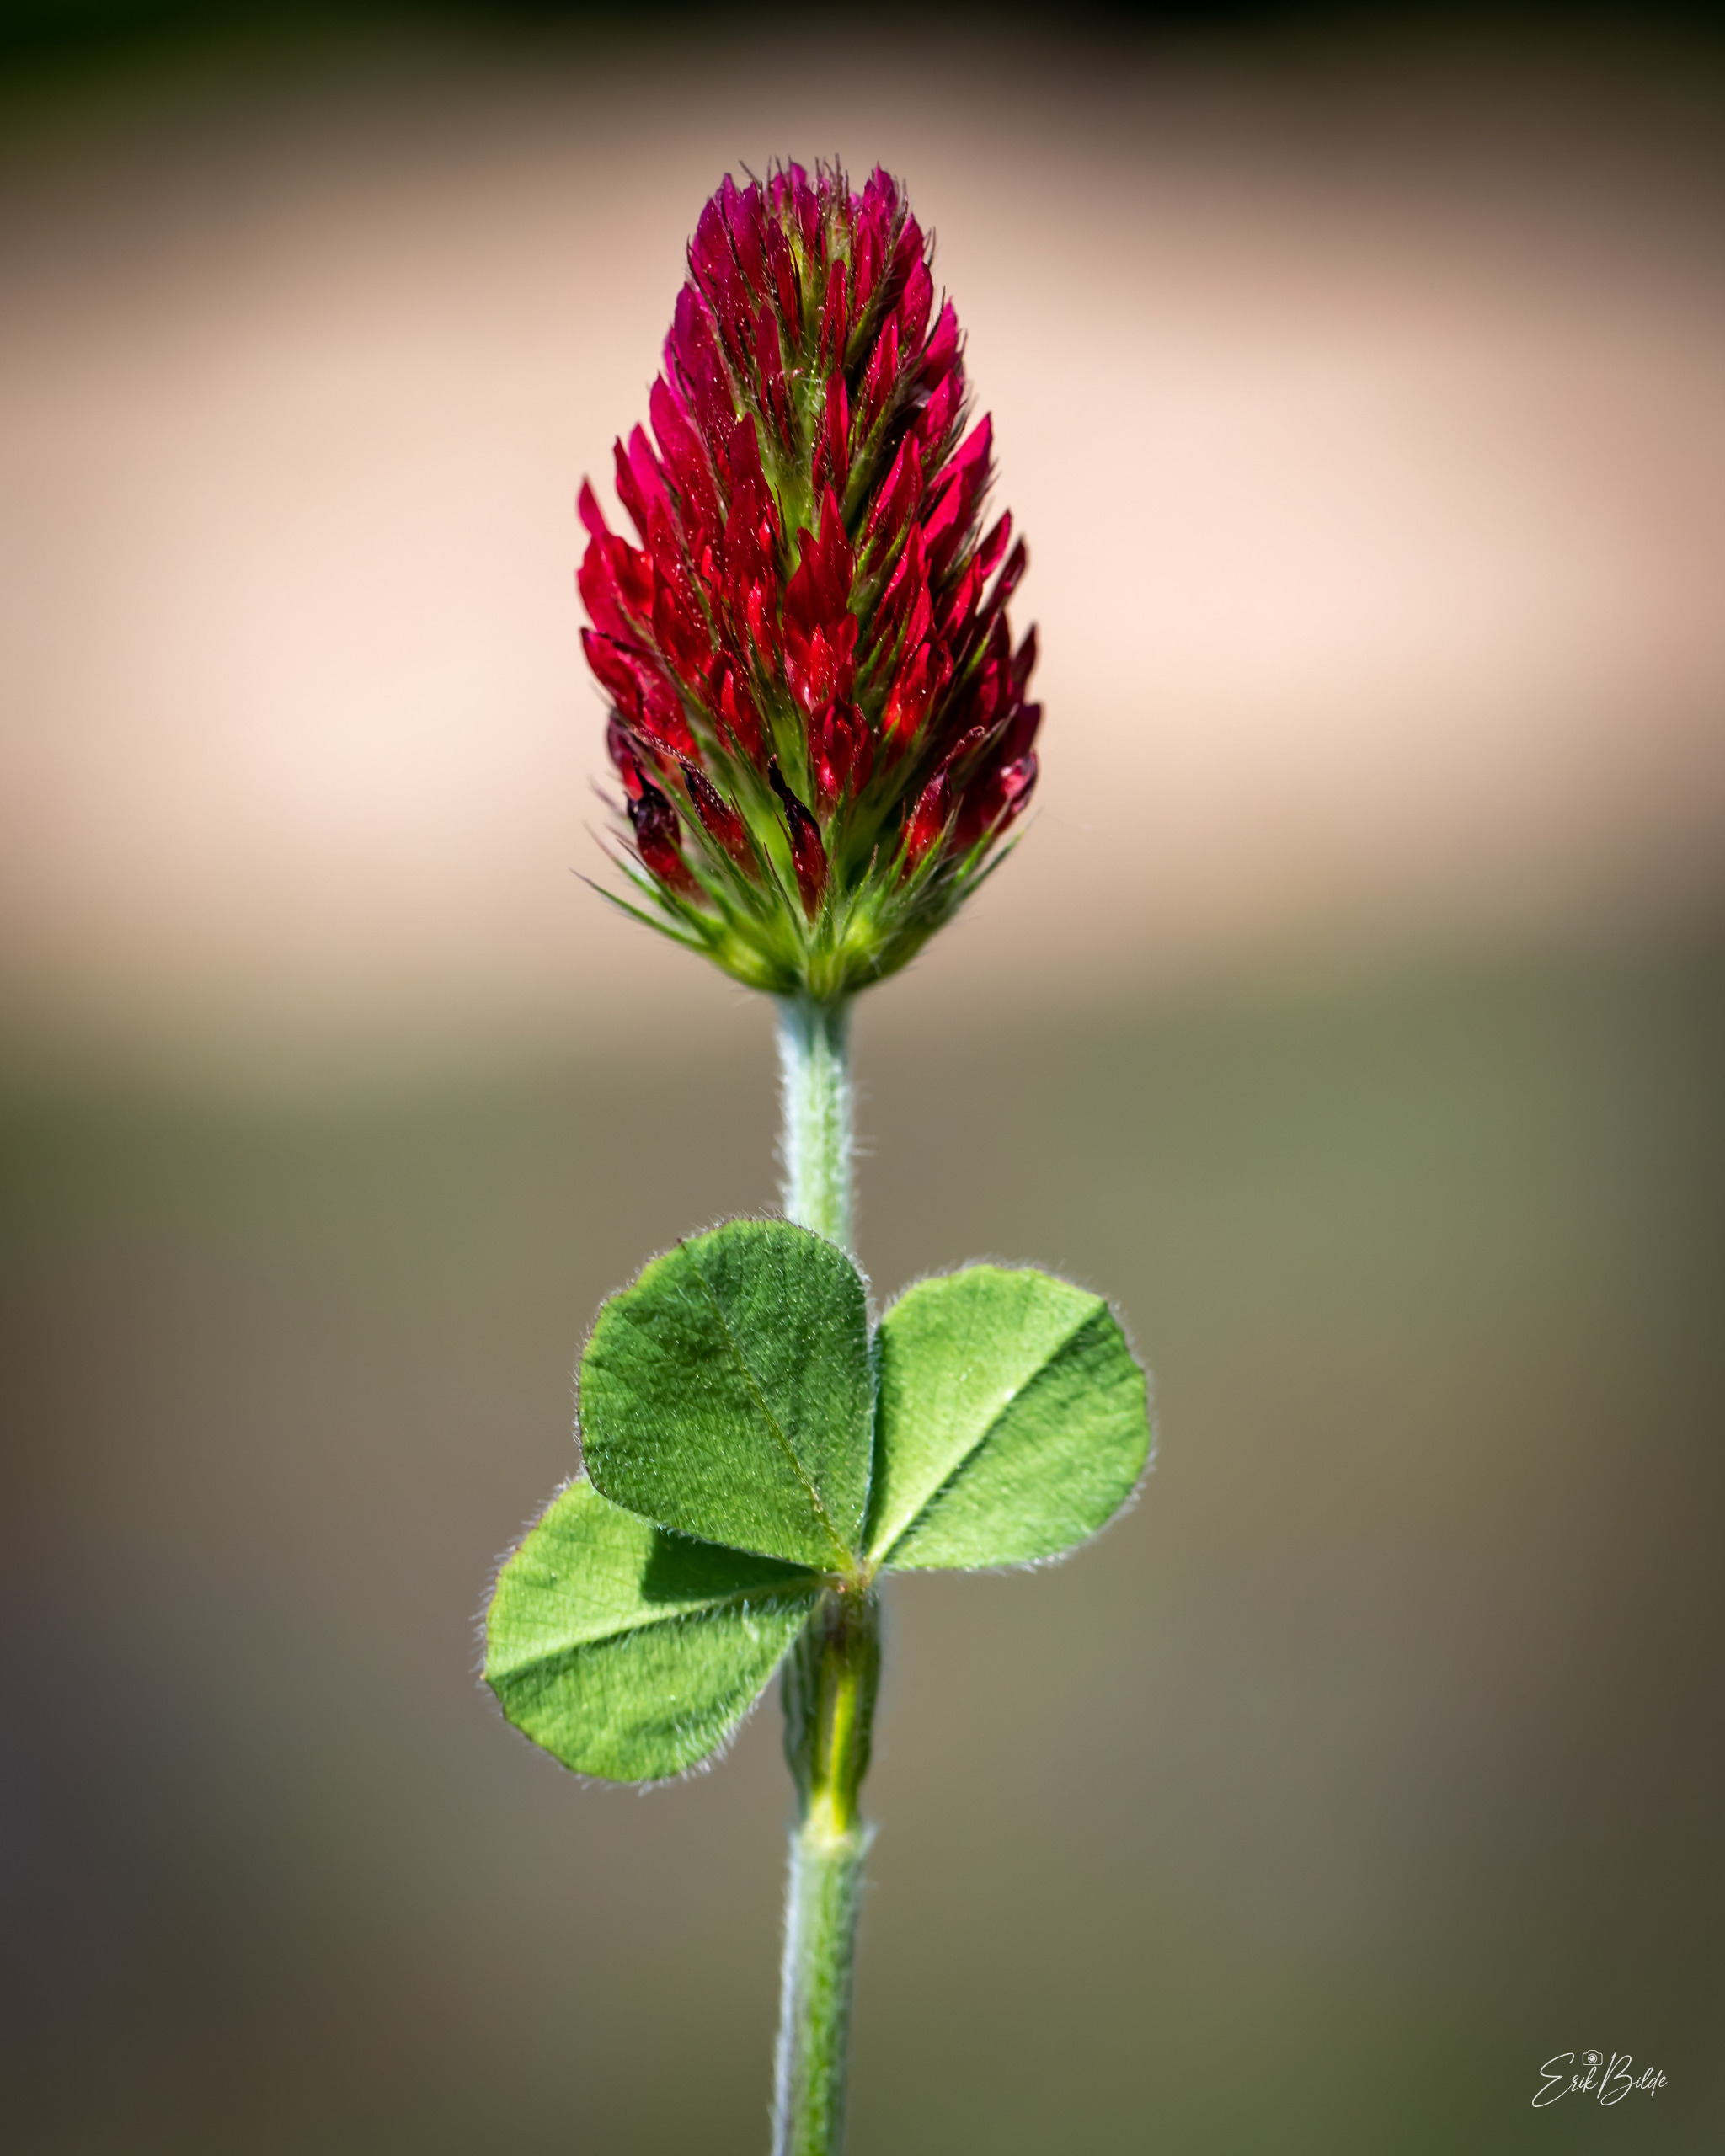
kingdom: Plantae
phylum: Tracheophyta
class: Magnoliopsida
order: Fabales
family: Fabaceae
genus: Trifolium
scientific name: Trifolium incarnatum
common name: Blod-kløver
